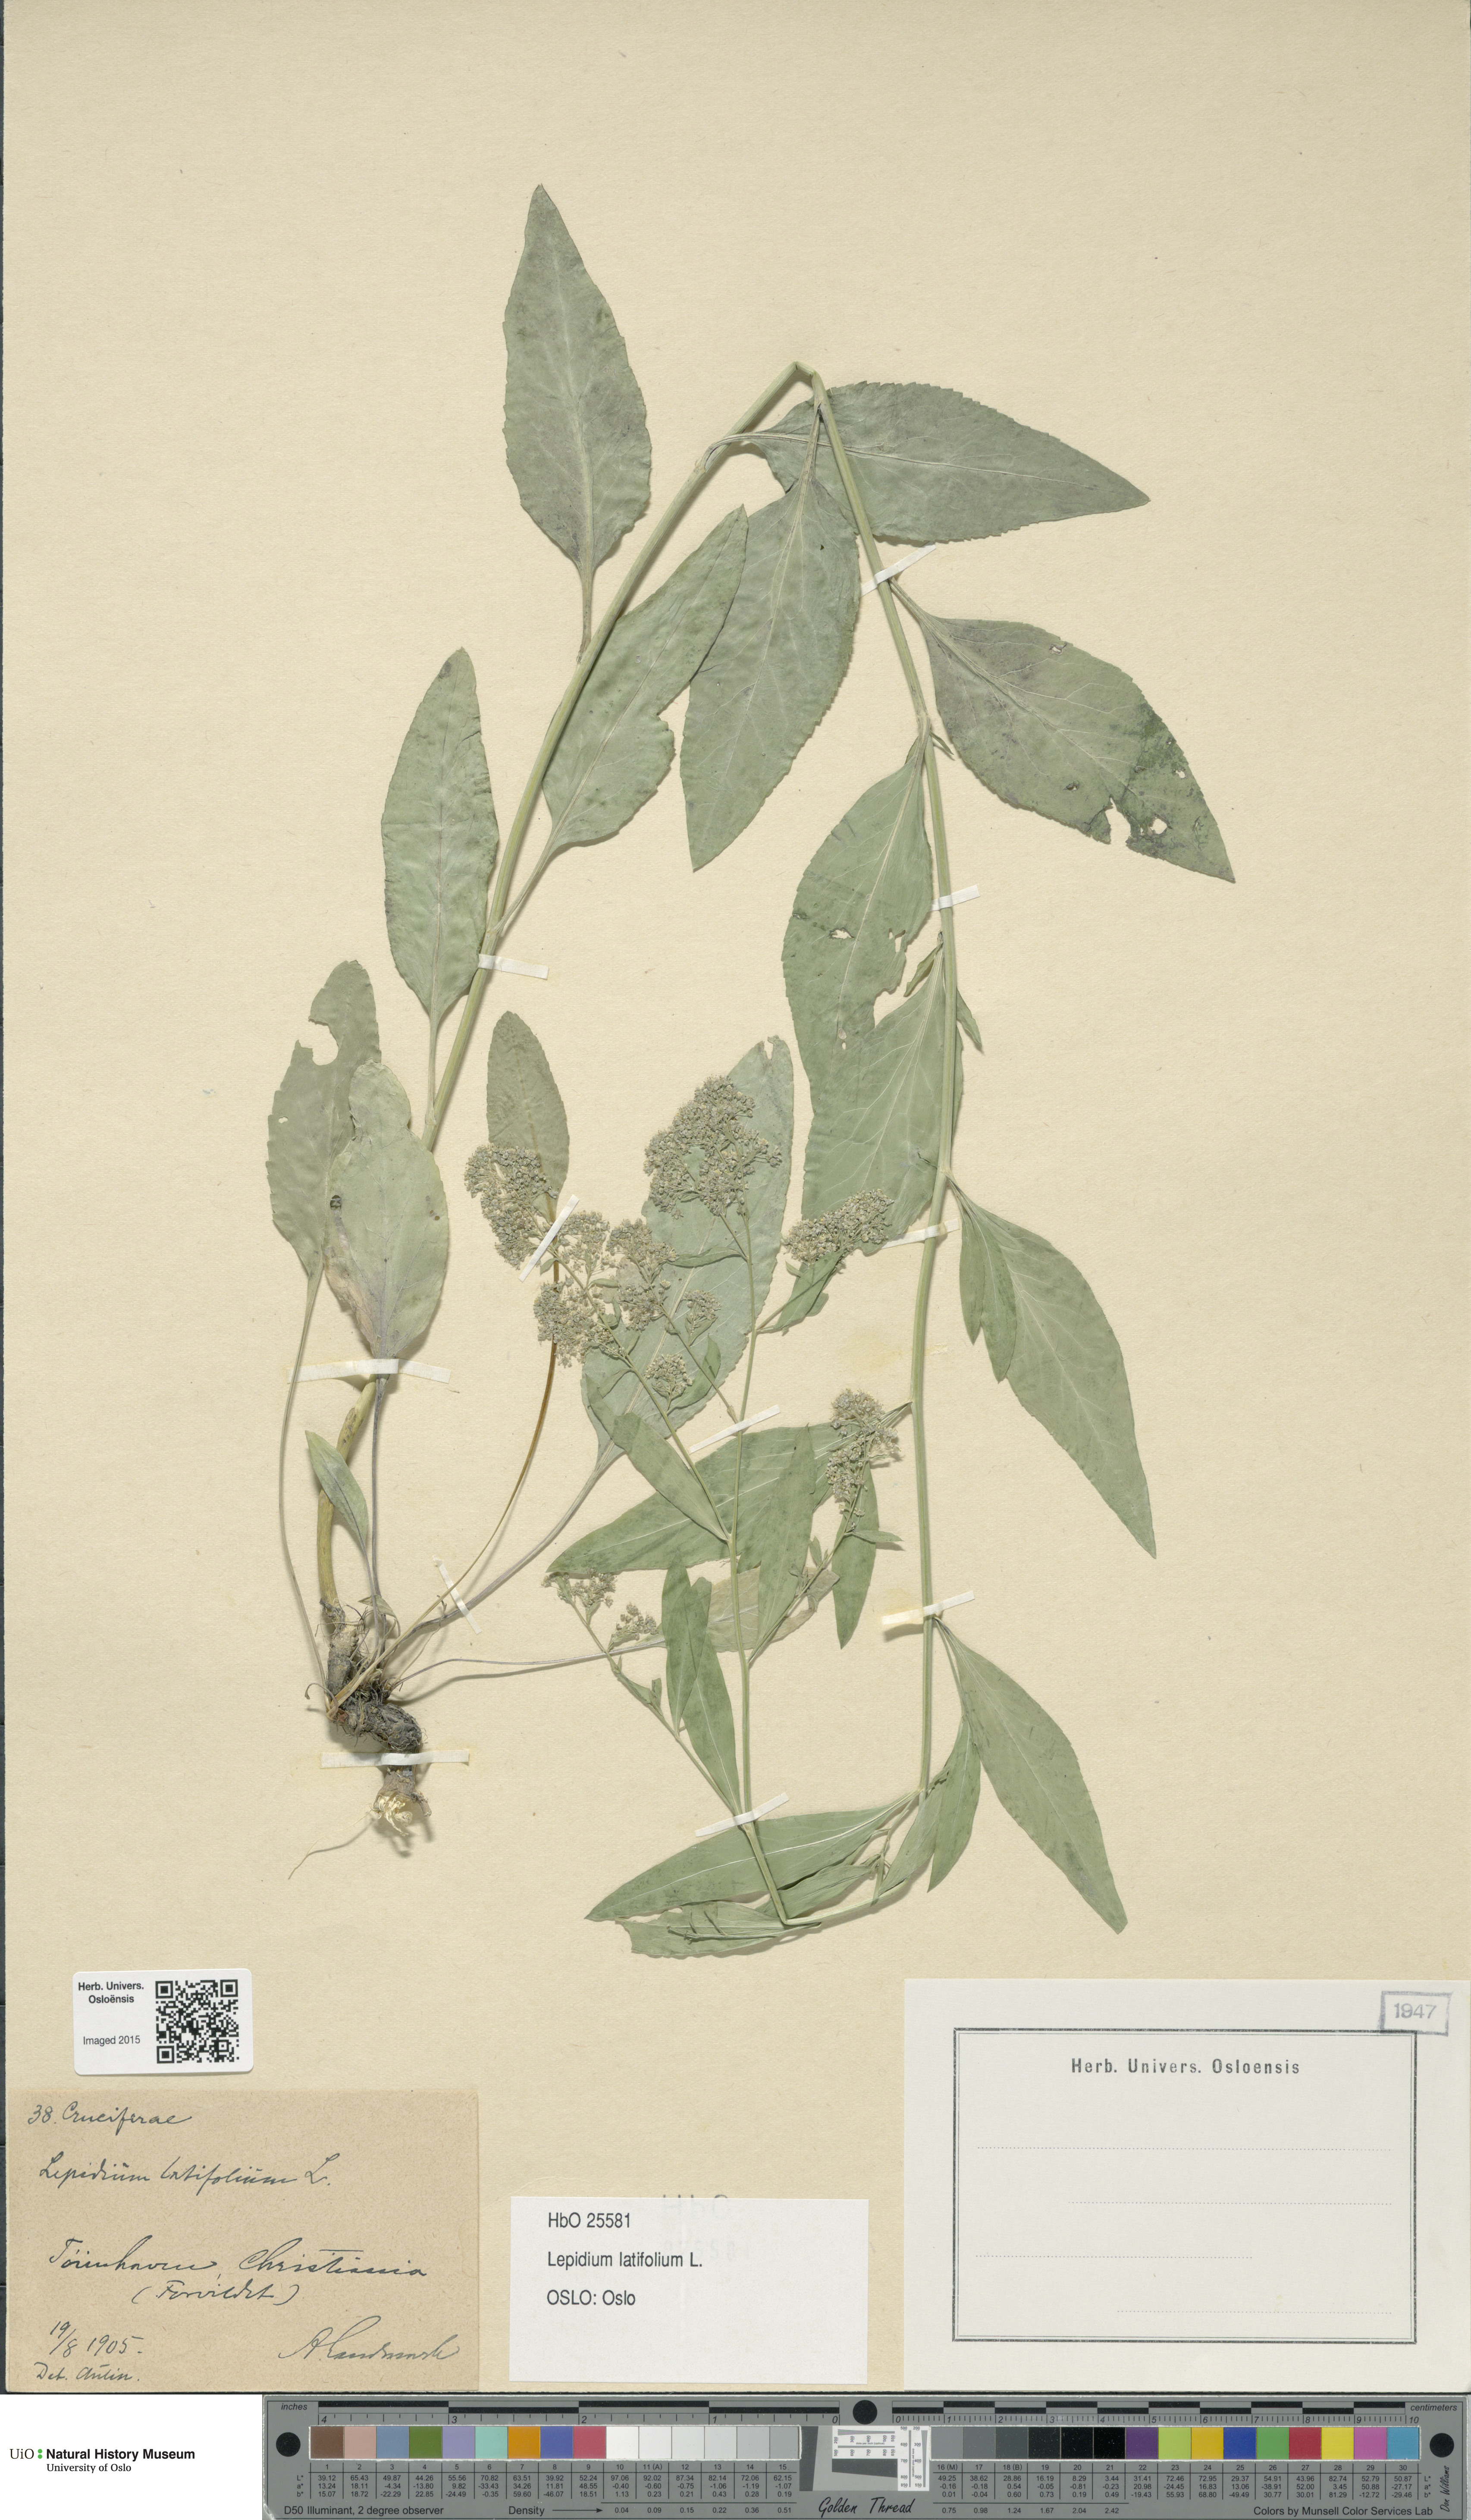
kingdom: Plantae
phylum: Tracheophyta
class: Magnoliopsida
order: Brassicales
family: Brassicaceae
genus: Lepidium
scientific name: Lepidium latifolium
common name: Dittander
